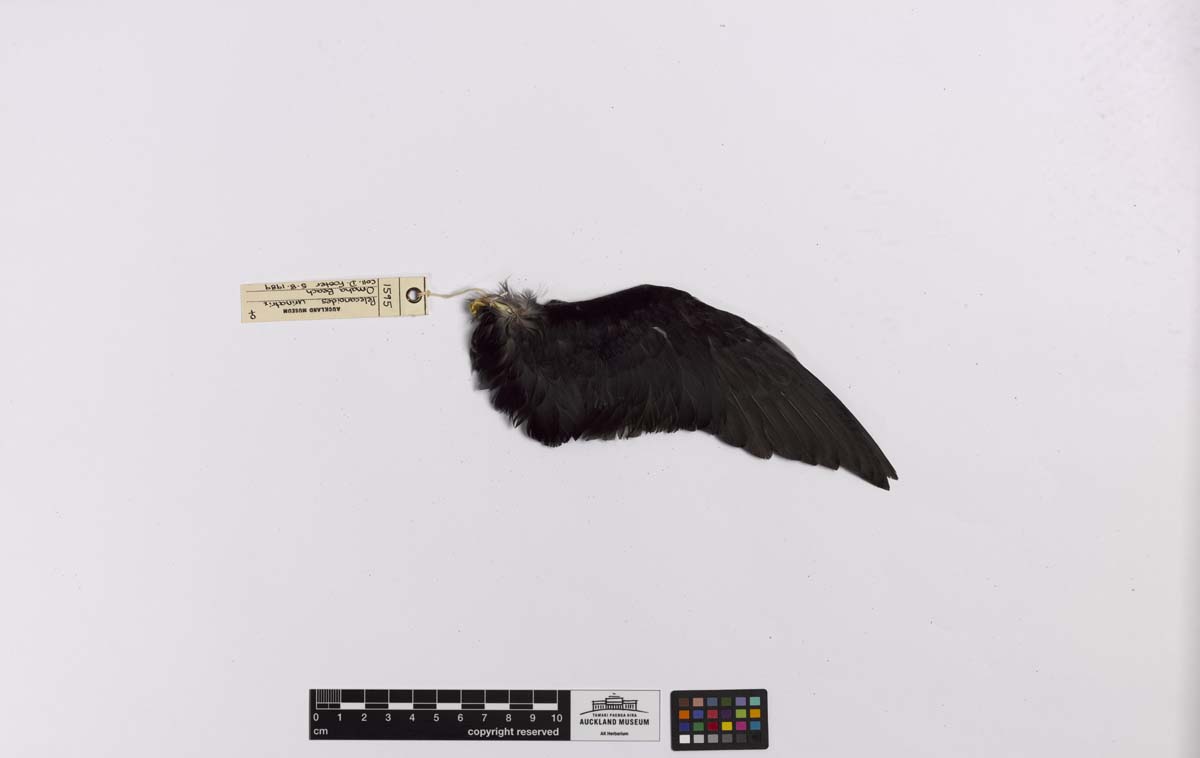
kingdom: Animalia
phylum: Chordata
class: Aves
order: Procellariiformes
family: Pelecanoididae
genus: Pelecanoides
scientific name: Pelecanoides urinatrix
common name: Common diving-petrel
